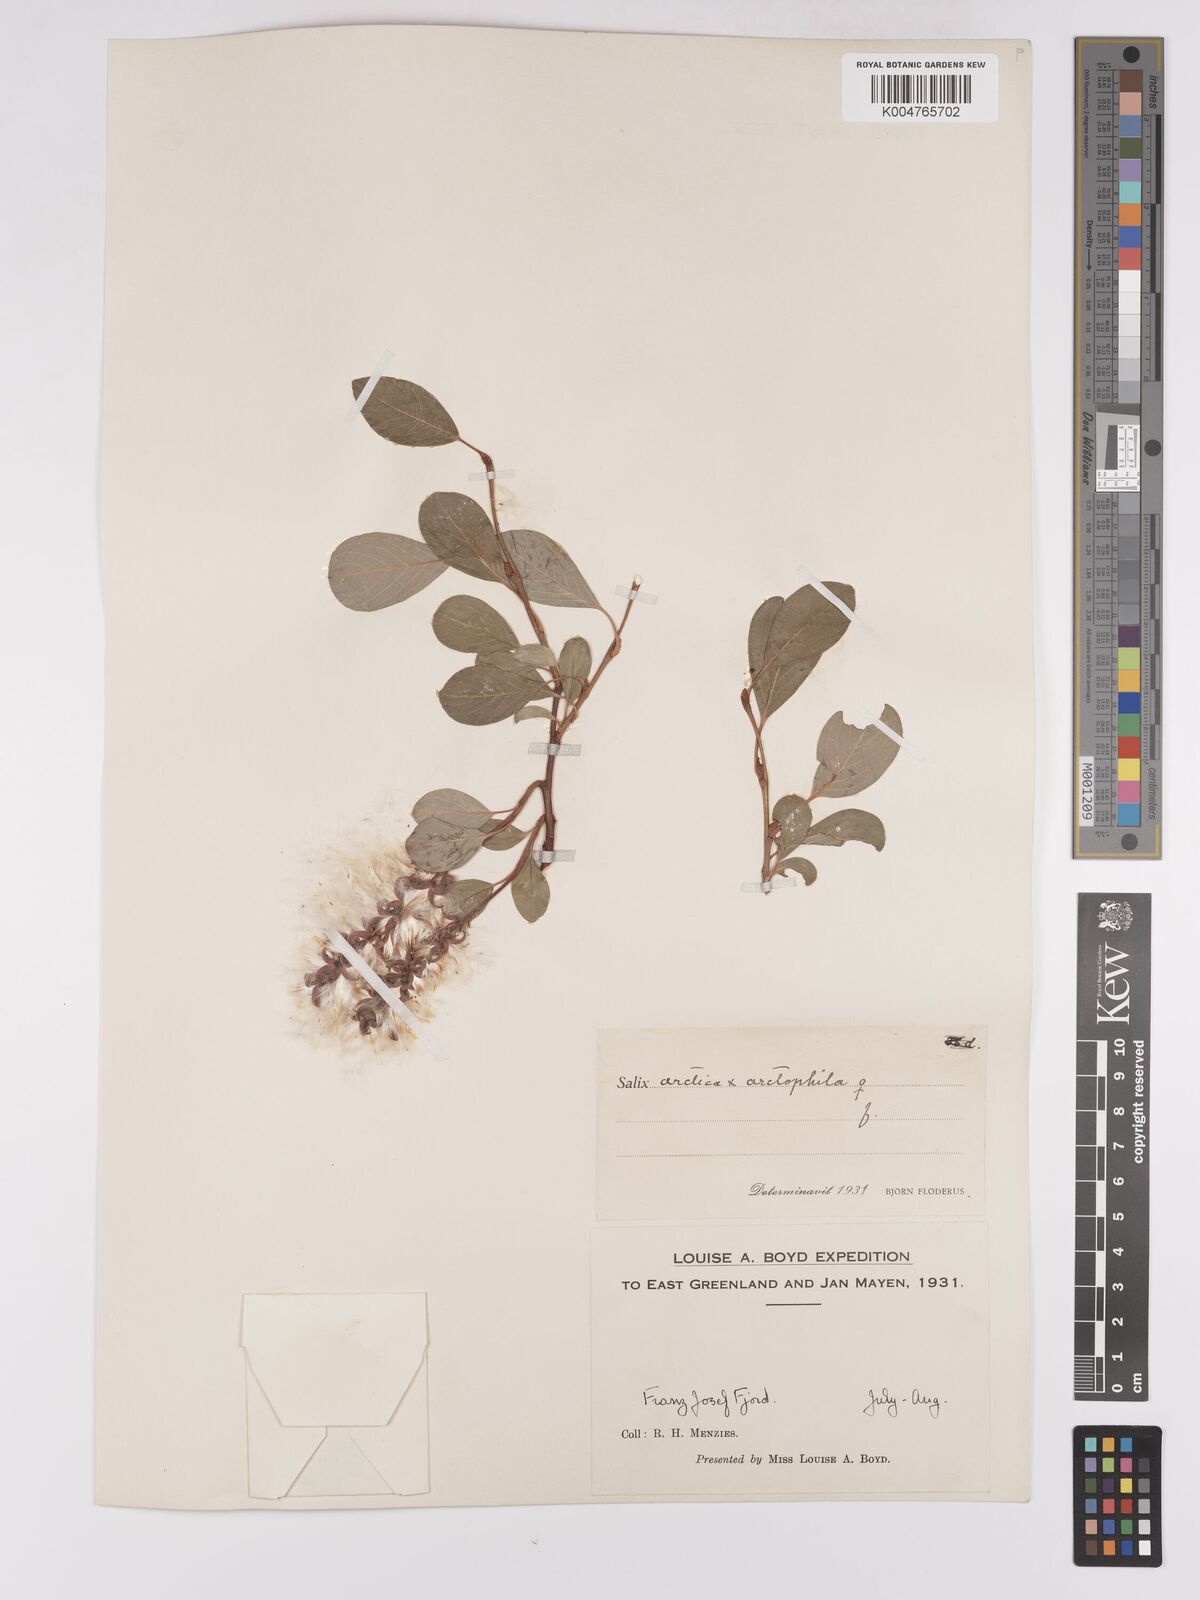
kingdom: Plantae
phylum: Tracheophyta
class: Magnoliopsida
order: Malpighiales
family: Salicaceae
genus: Salix
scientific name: Salix
